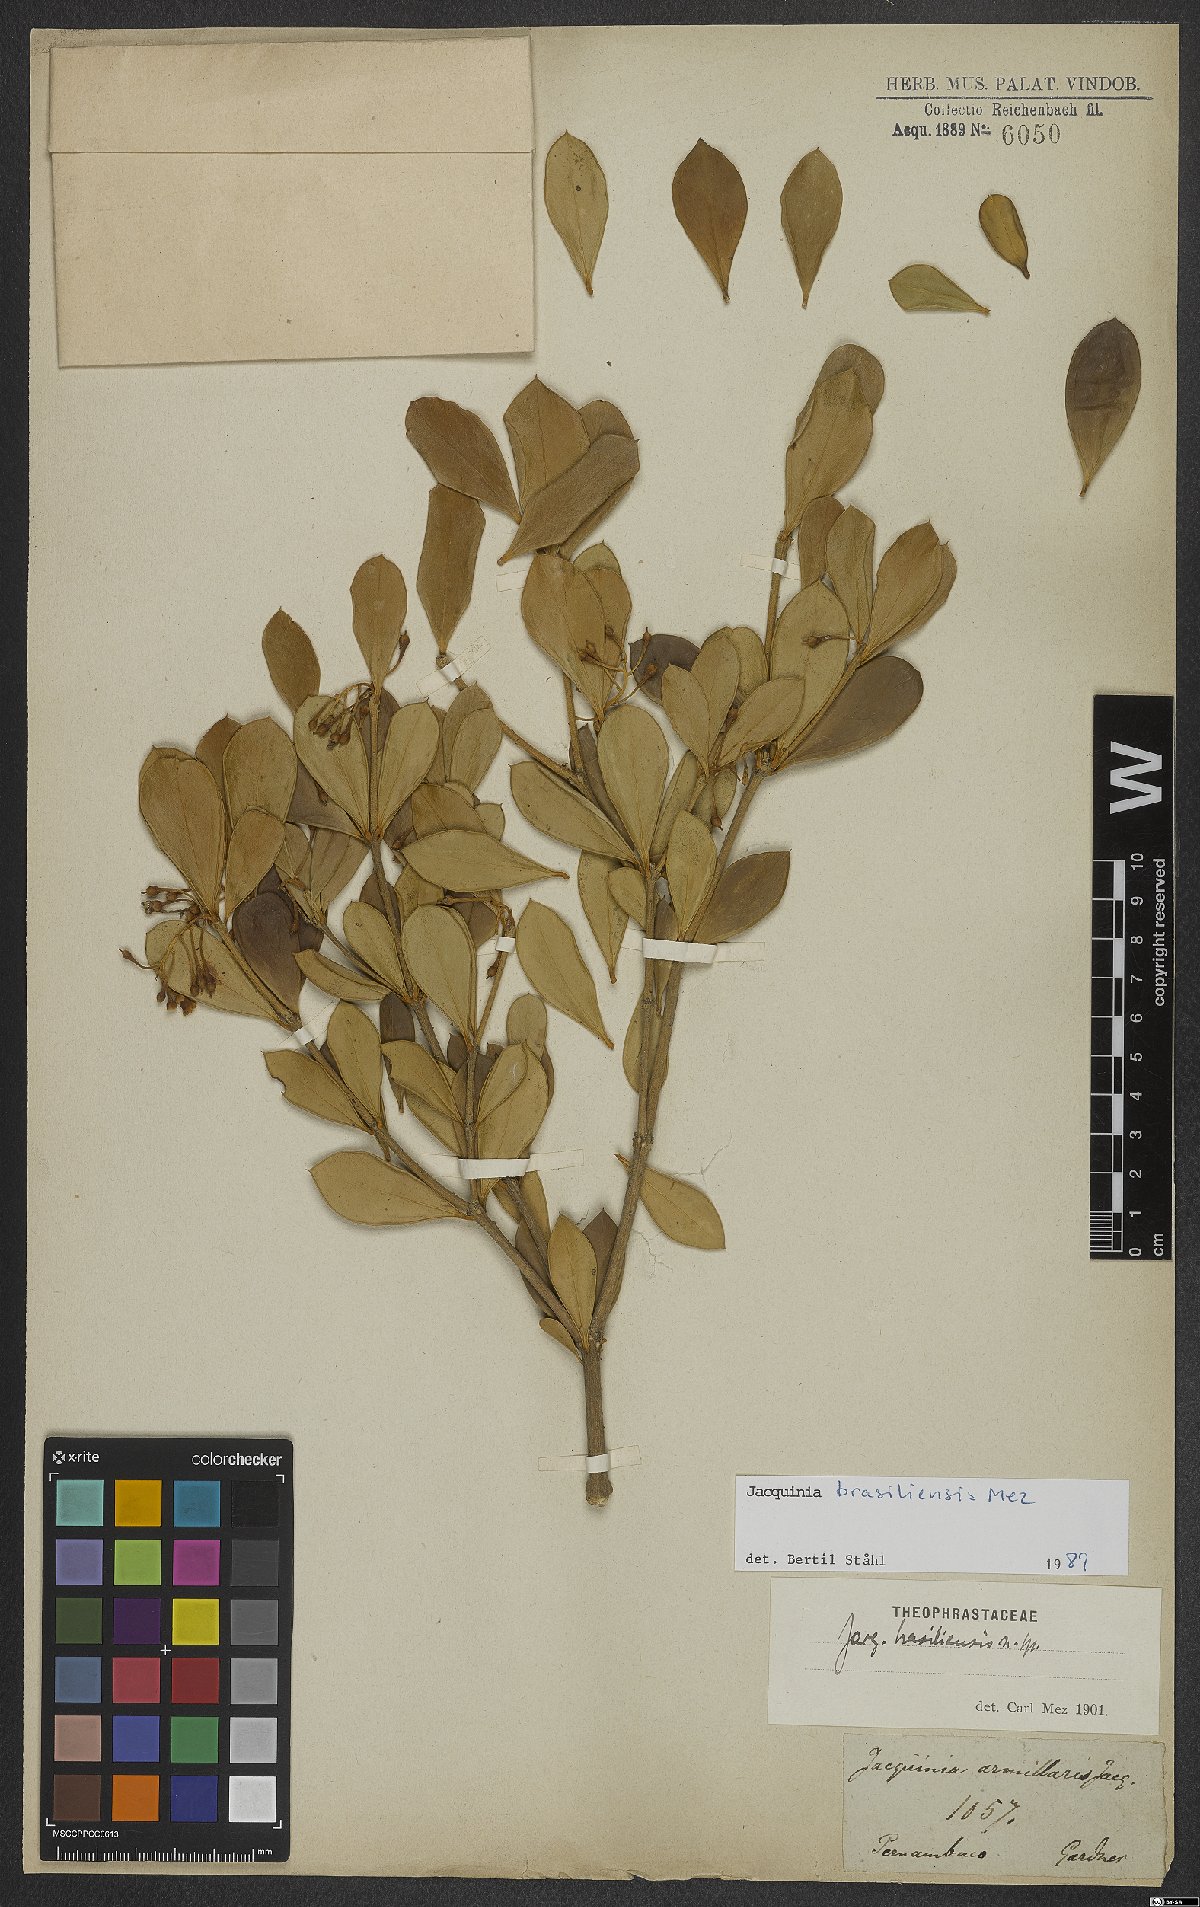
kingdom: Plantae
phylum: Tracheophyta
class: Magnoliopsida
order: Ericales
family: Primulaceae
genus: Jacquinia
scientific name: Jacquinia armillaris
